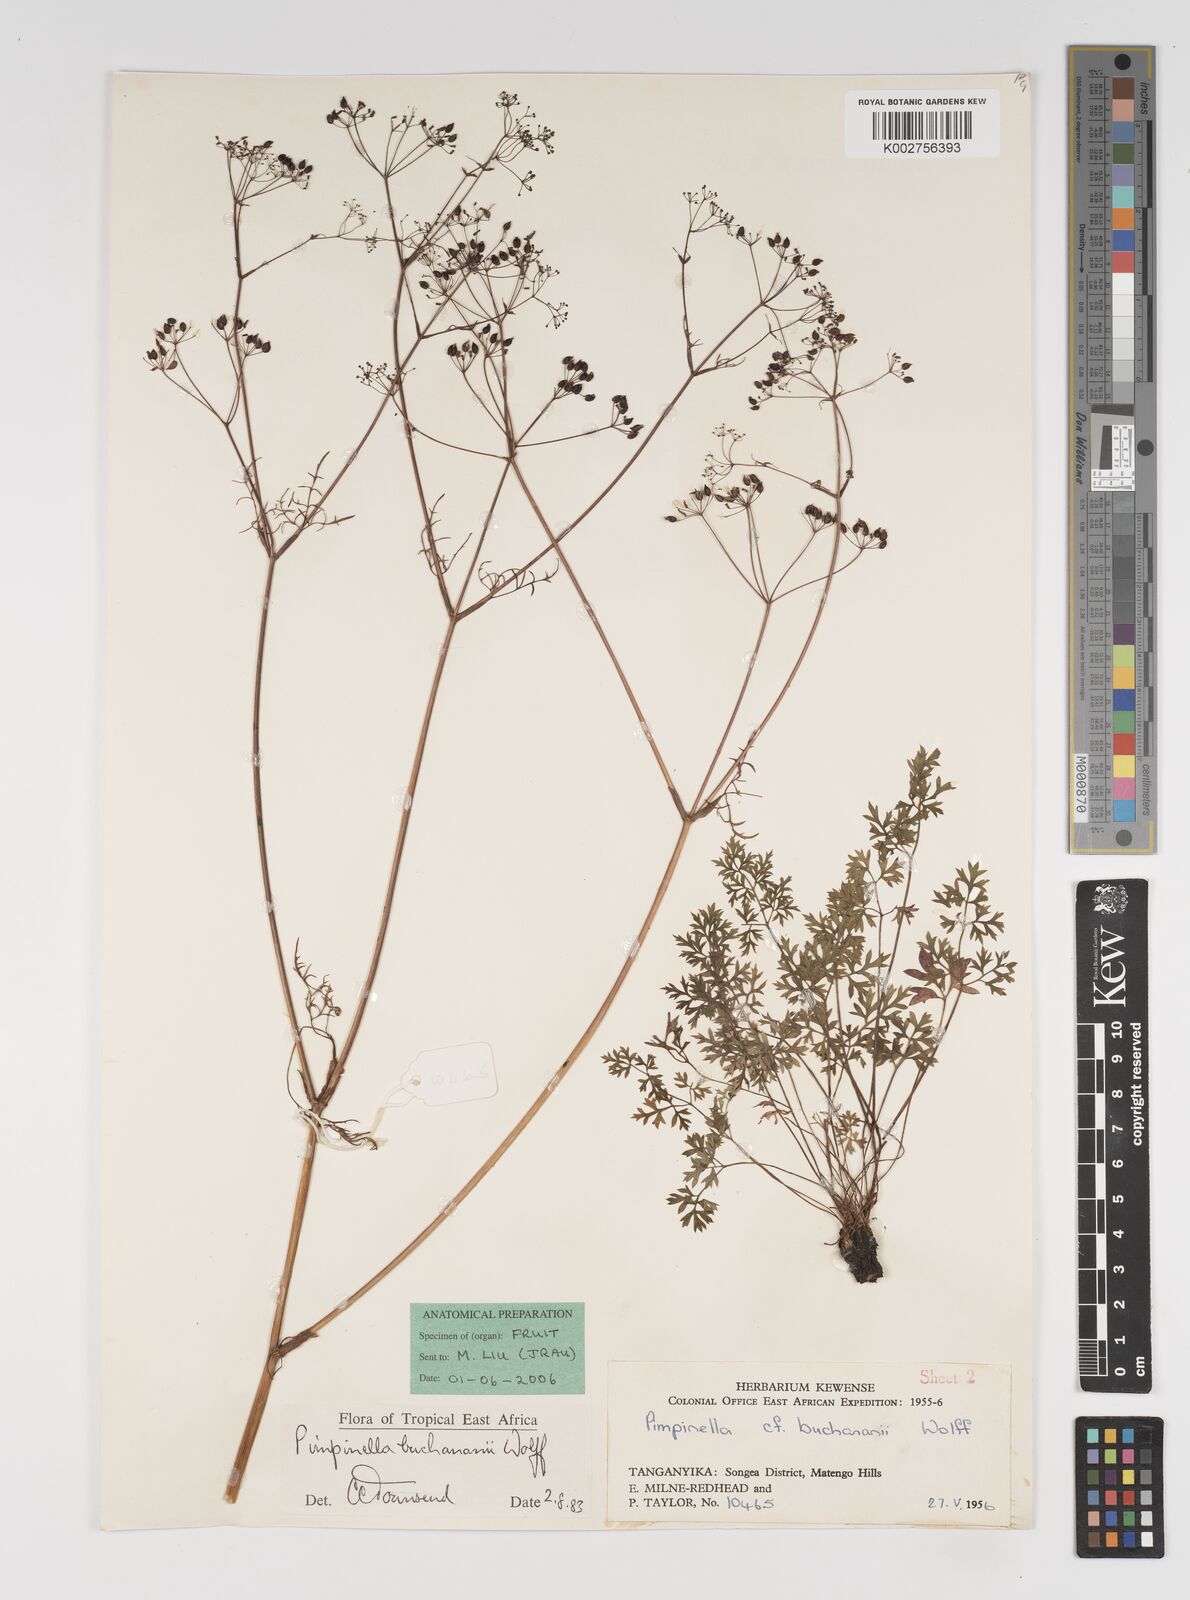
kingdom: Plantae
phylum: Tracheophyta
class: Magnoliopsida
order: Apiales
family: Apiaceae
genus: Pimpinella
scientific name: Pimpinella buchananii
